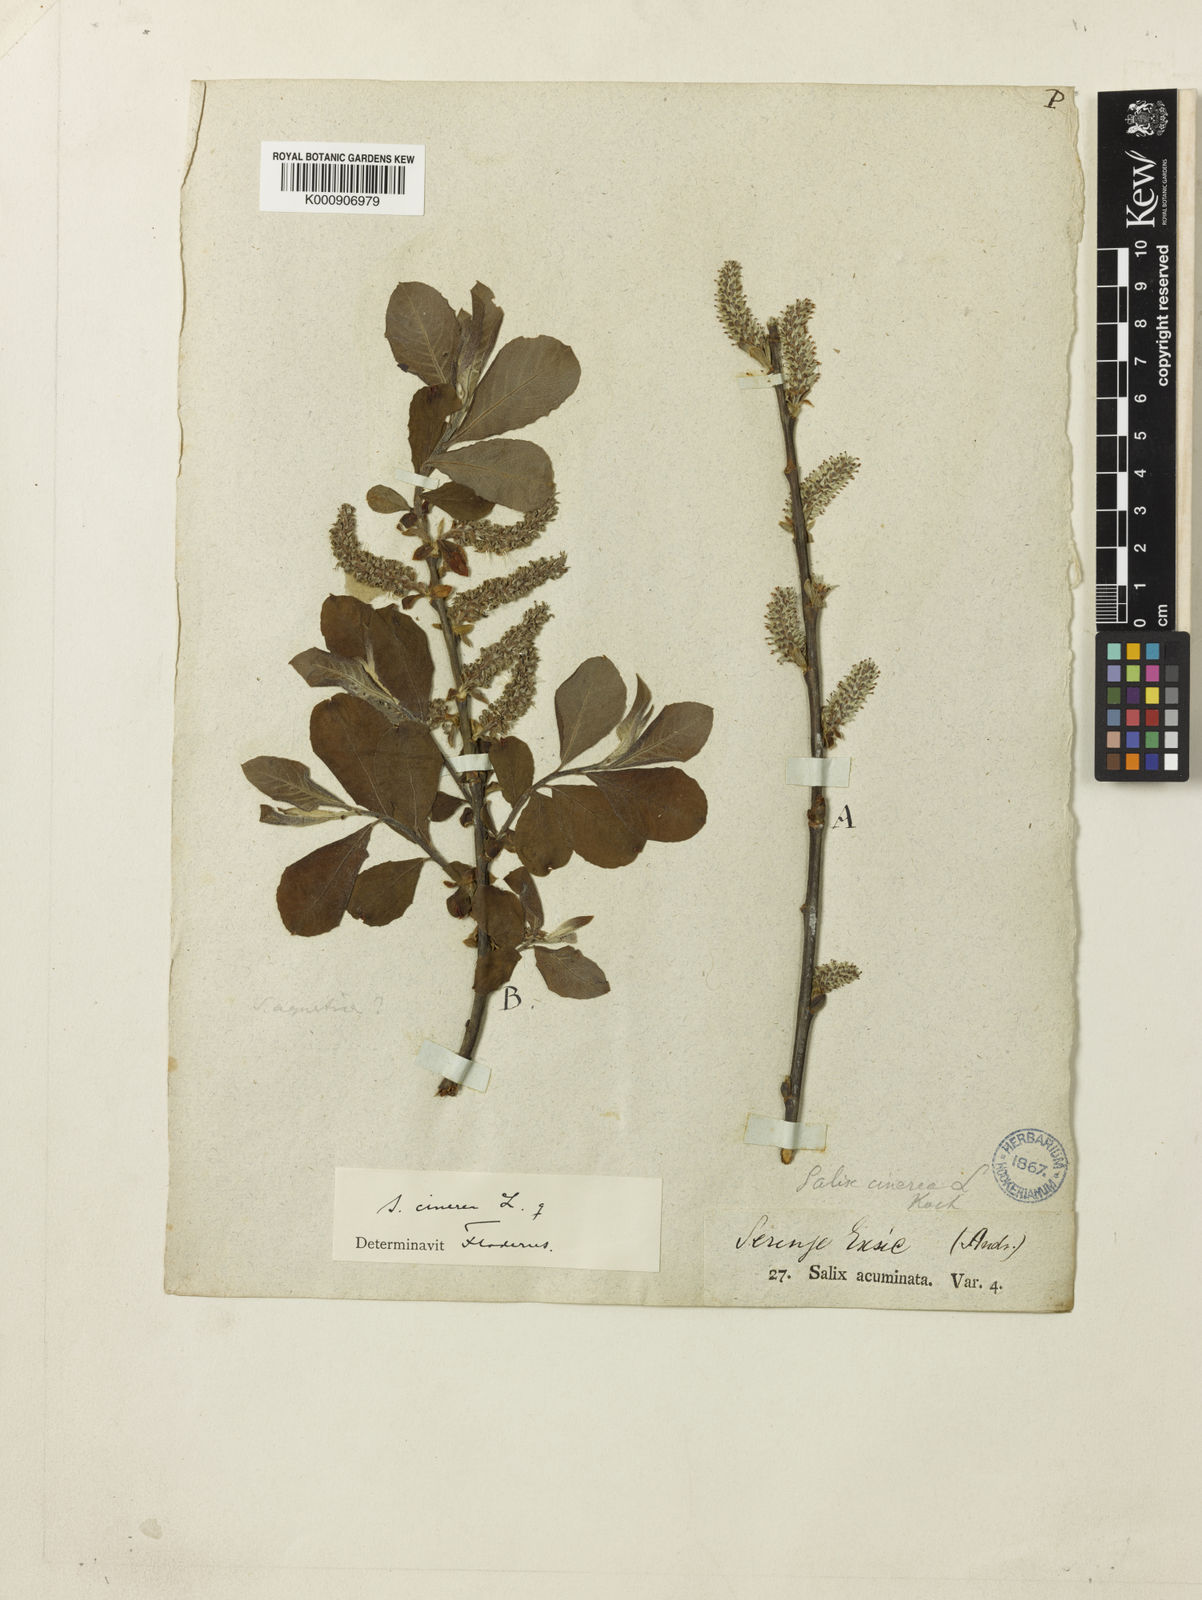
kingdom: Plantae
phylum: Tracheophyta
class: Magnoliopsida
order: Malpighiales
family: Salicaceae
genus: Salix
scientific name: Salix cinerea
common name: Common sallow
